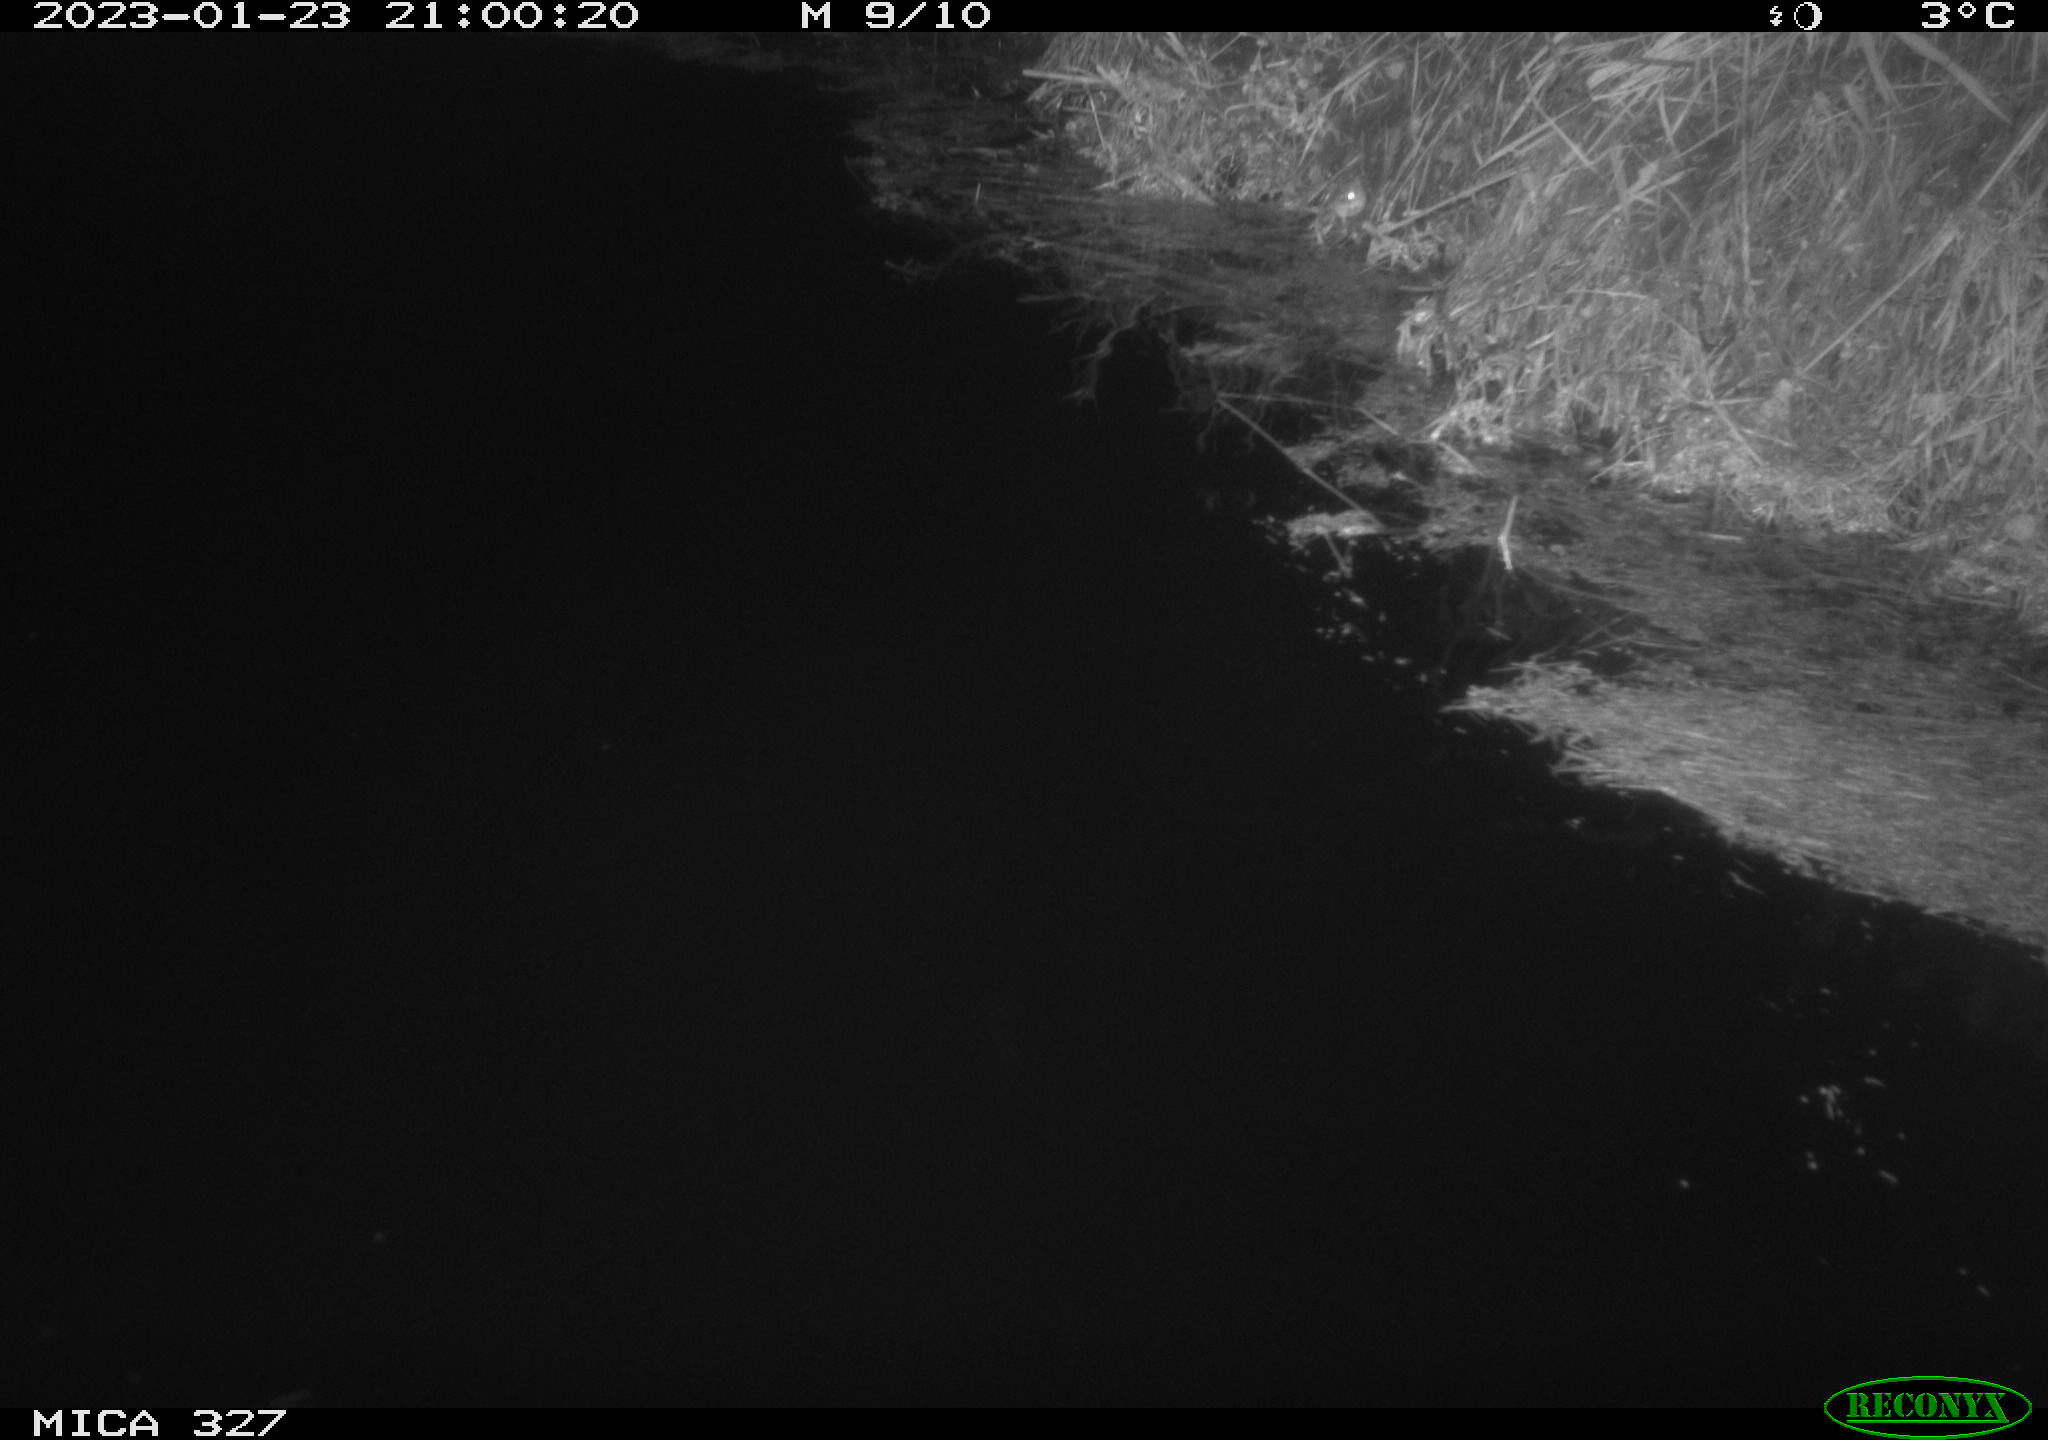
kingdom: Animalia
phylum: Chordata
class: Mammalia
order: Rodentia
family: Cricetidae
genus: Ondatra
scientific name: Ondatra zibethicus
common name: Muskrat
